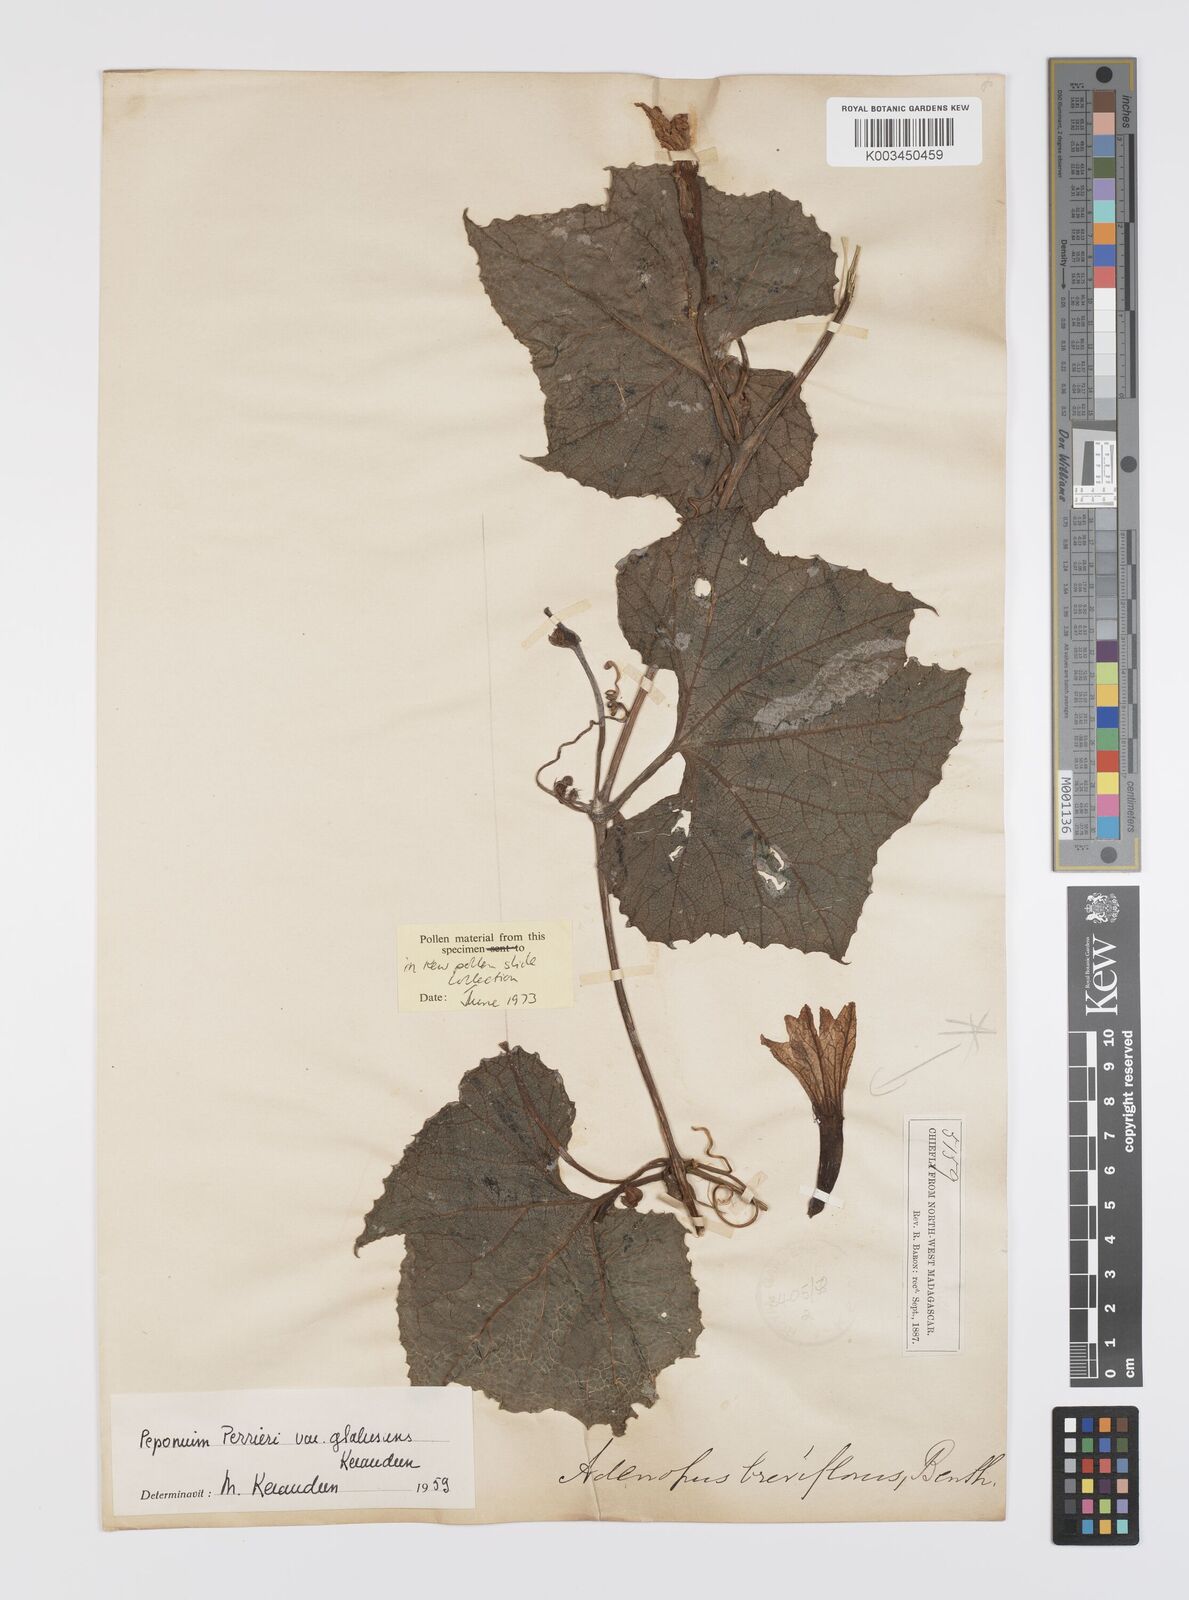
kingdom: Plantae
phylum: Tracheophyta
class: Magnoliopsida
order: Cucurbitales
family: Cucurbitaceae
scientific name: Cucurbitaceae
